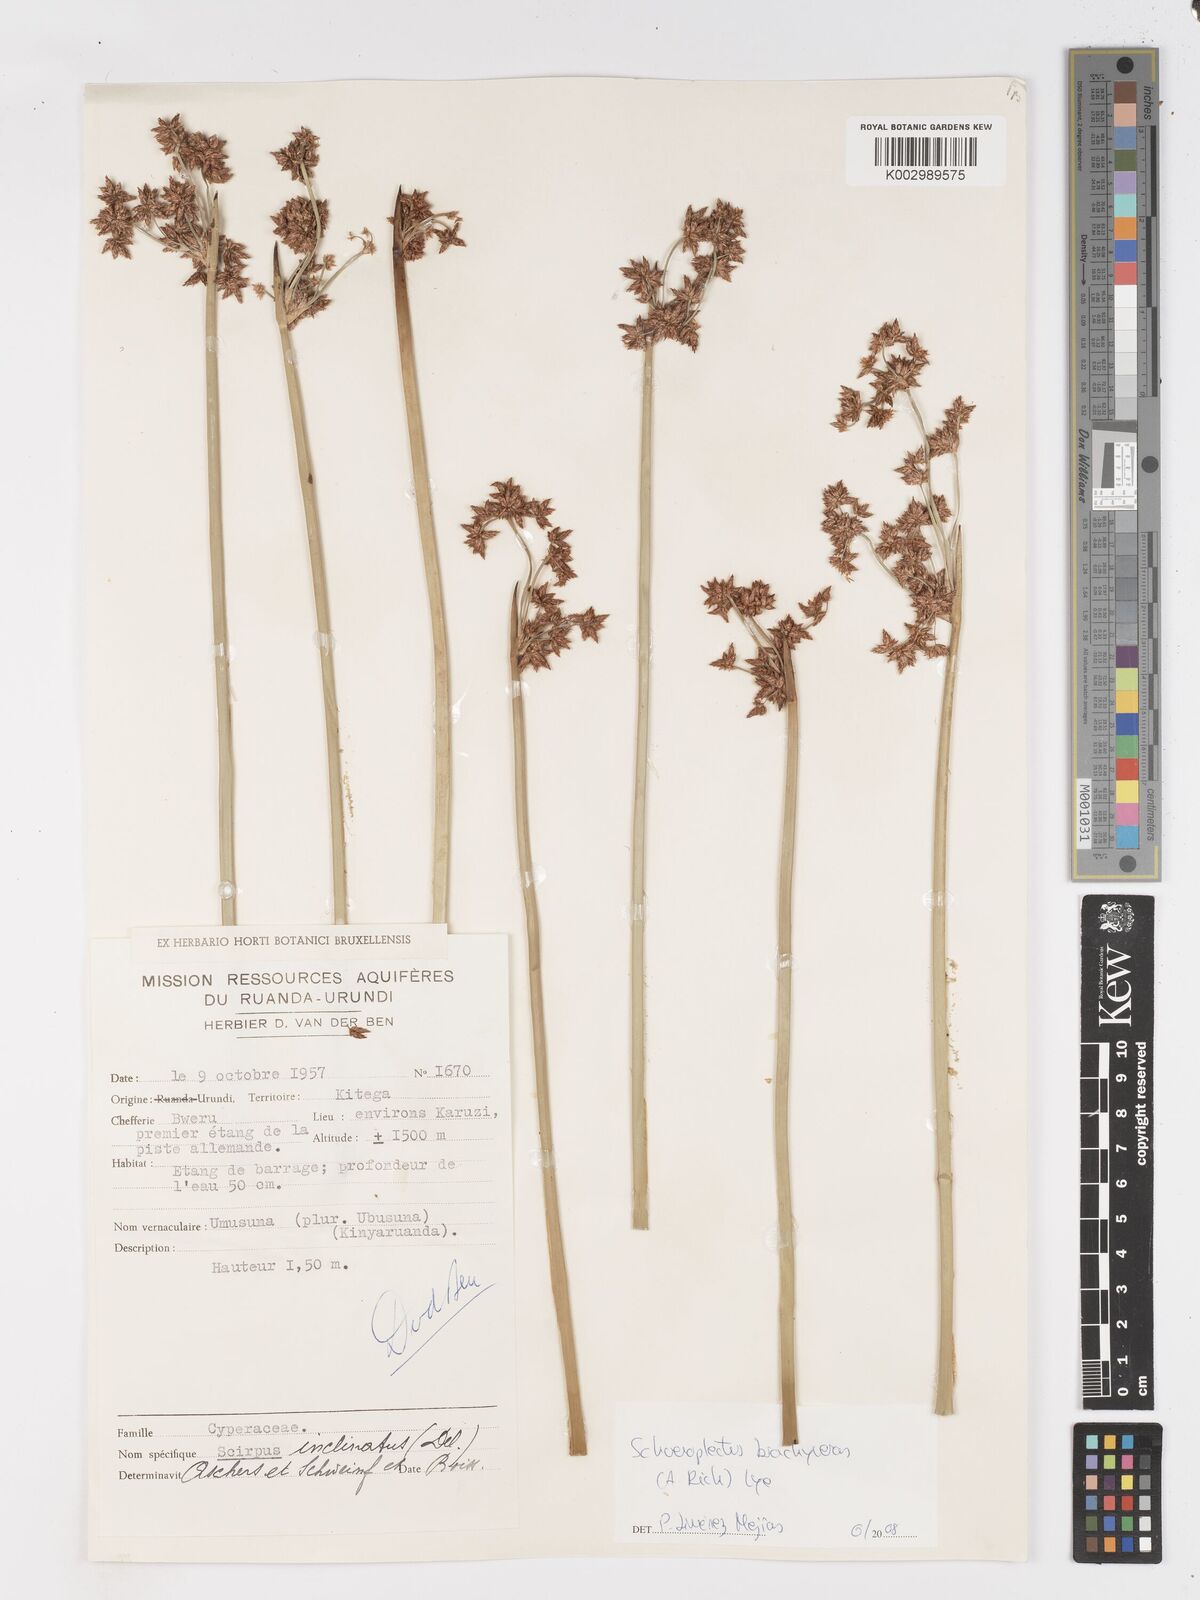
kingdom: Plantae
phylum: Tracheophyta
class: Liliopsida
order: Poales
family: Cyperaceae
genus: Schoenoplectiella
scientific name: Schoenoplectiella corymbosa
